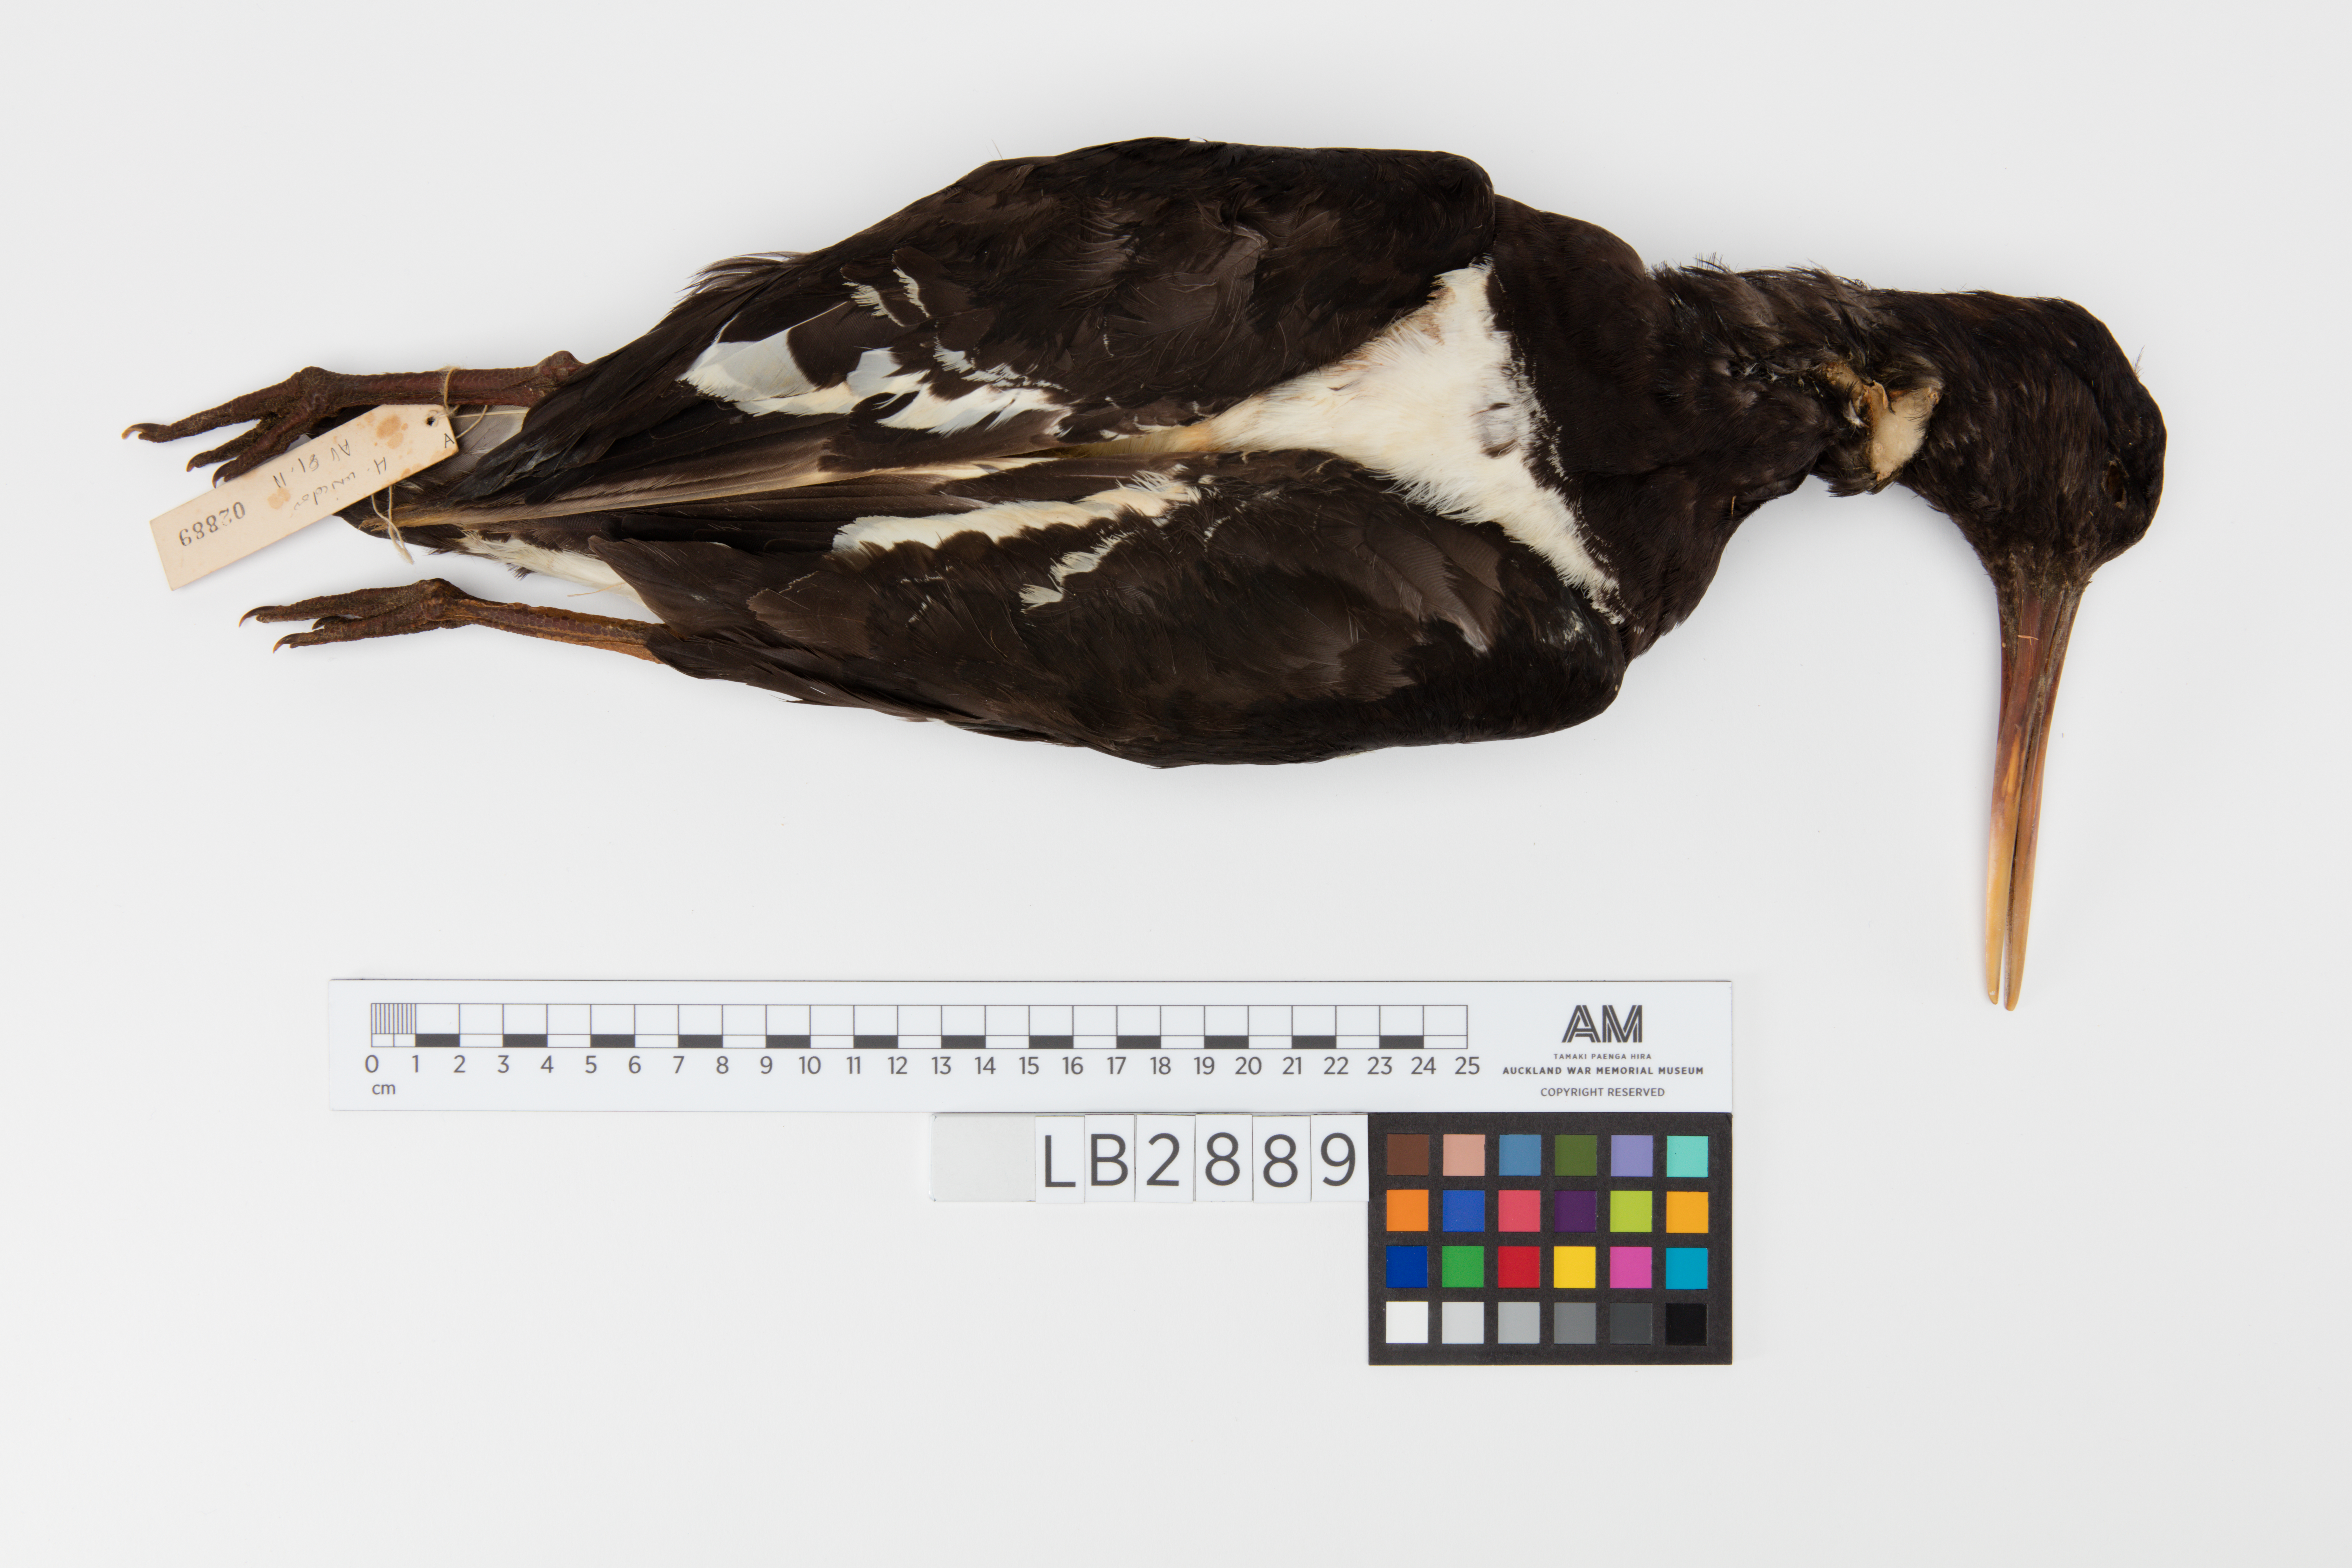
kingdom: Animalia
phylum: Chordata
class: Aves
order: Charadriiformes
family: Haematopodidae
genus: Haematopus
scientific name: Haematopus unicolor
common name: Variable oystercatcher
